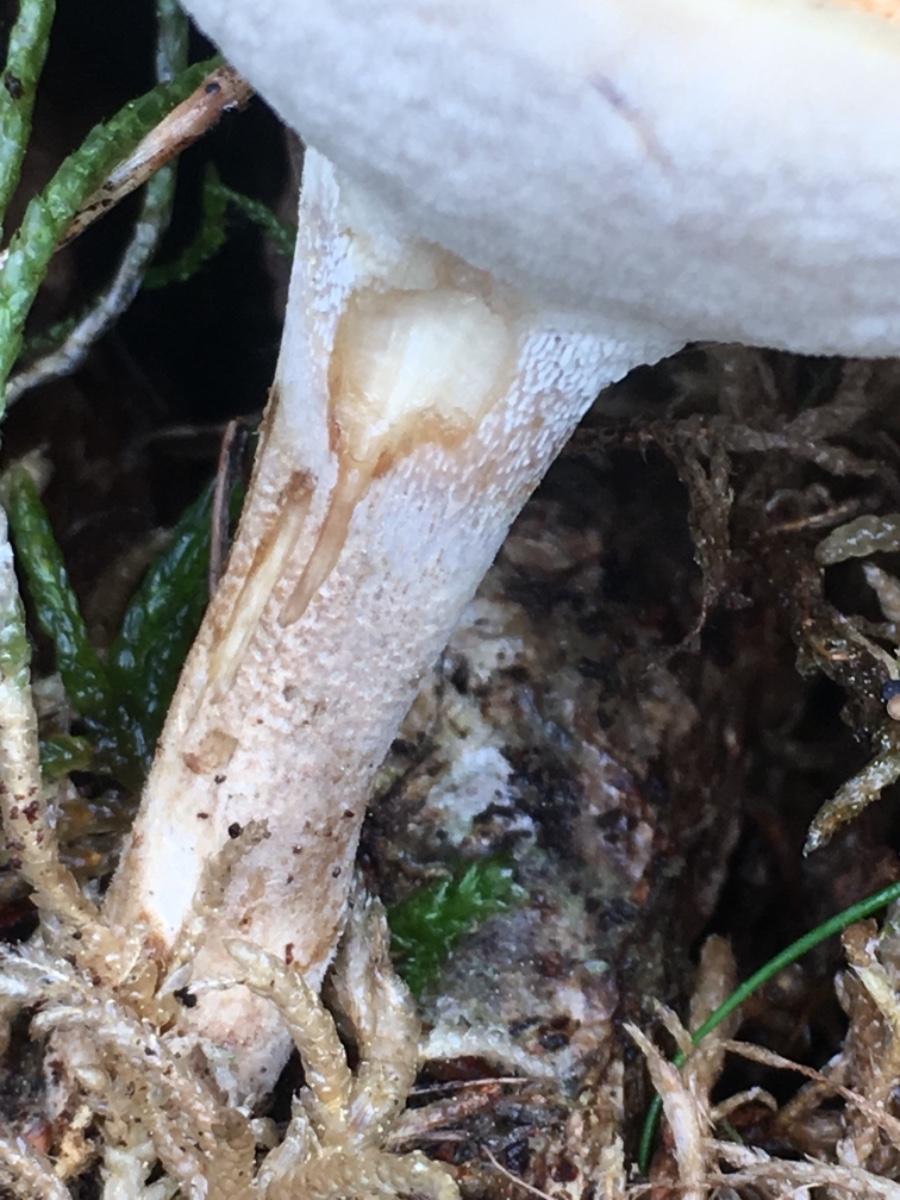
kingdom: Fungi
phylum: Basidiomycota
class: Agaricomycetes
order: Polyporales
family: Polyporaceae
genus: Lentinus
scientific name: Lentinus substrictus
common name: forårs-stilkporesvamp
